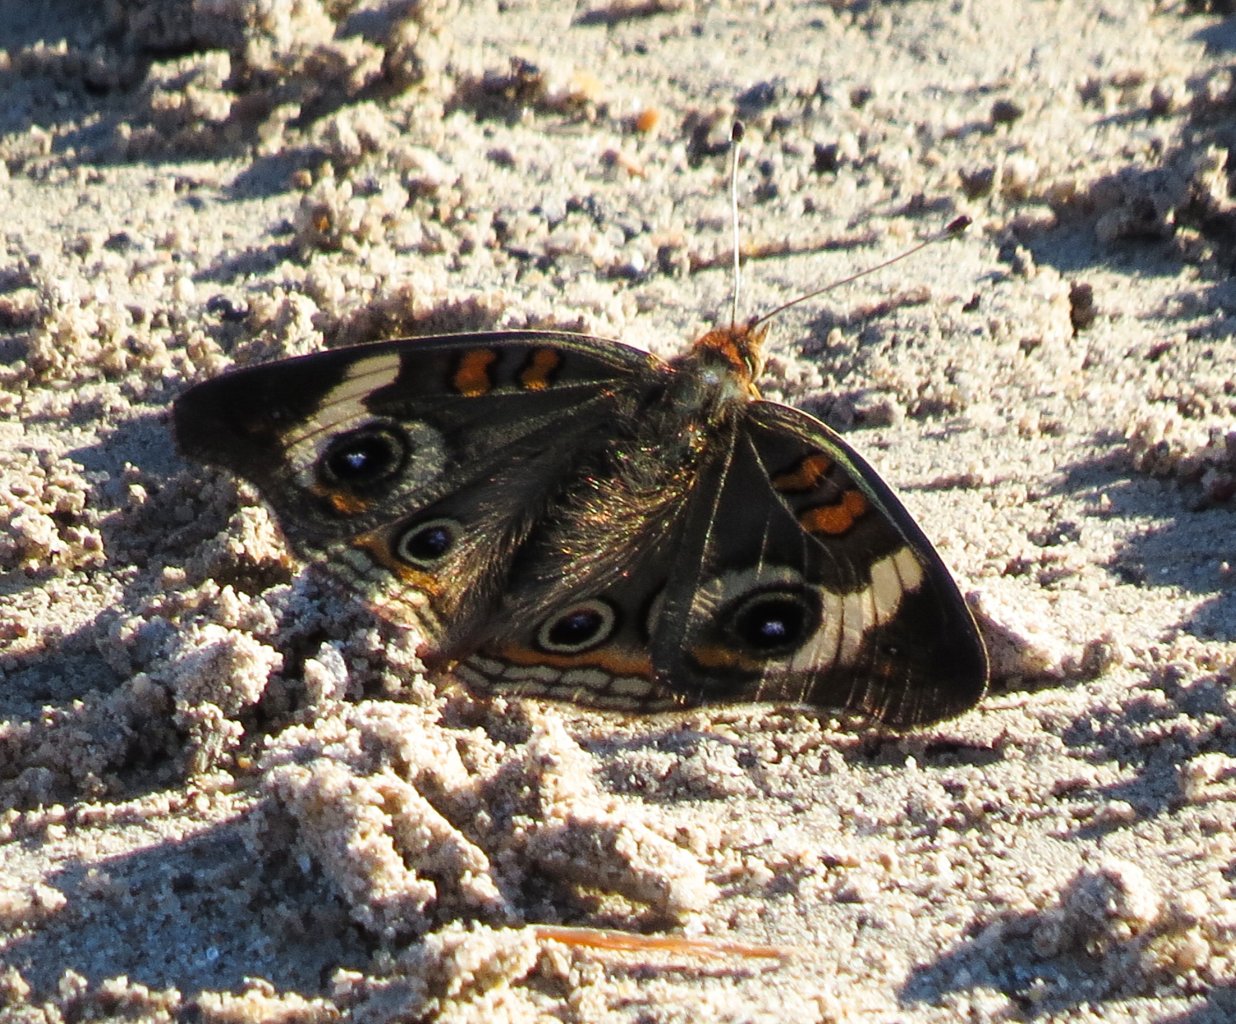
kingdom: Animalia
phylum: Arthropoda
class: Insecta
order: Lepidoptera
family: Nymphalidae
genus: Junonia
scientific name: Junonia coenia
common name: Common Buckeye
